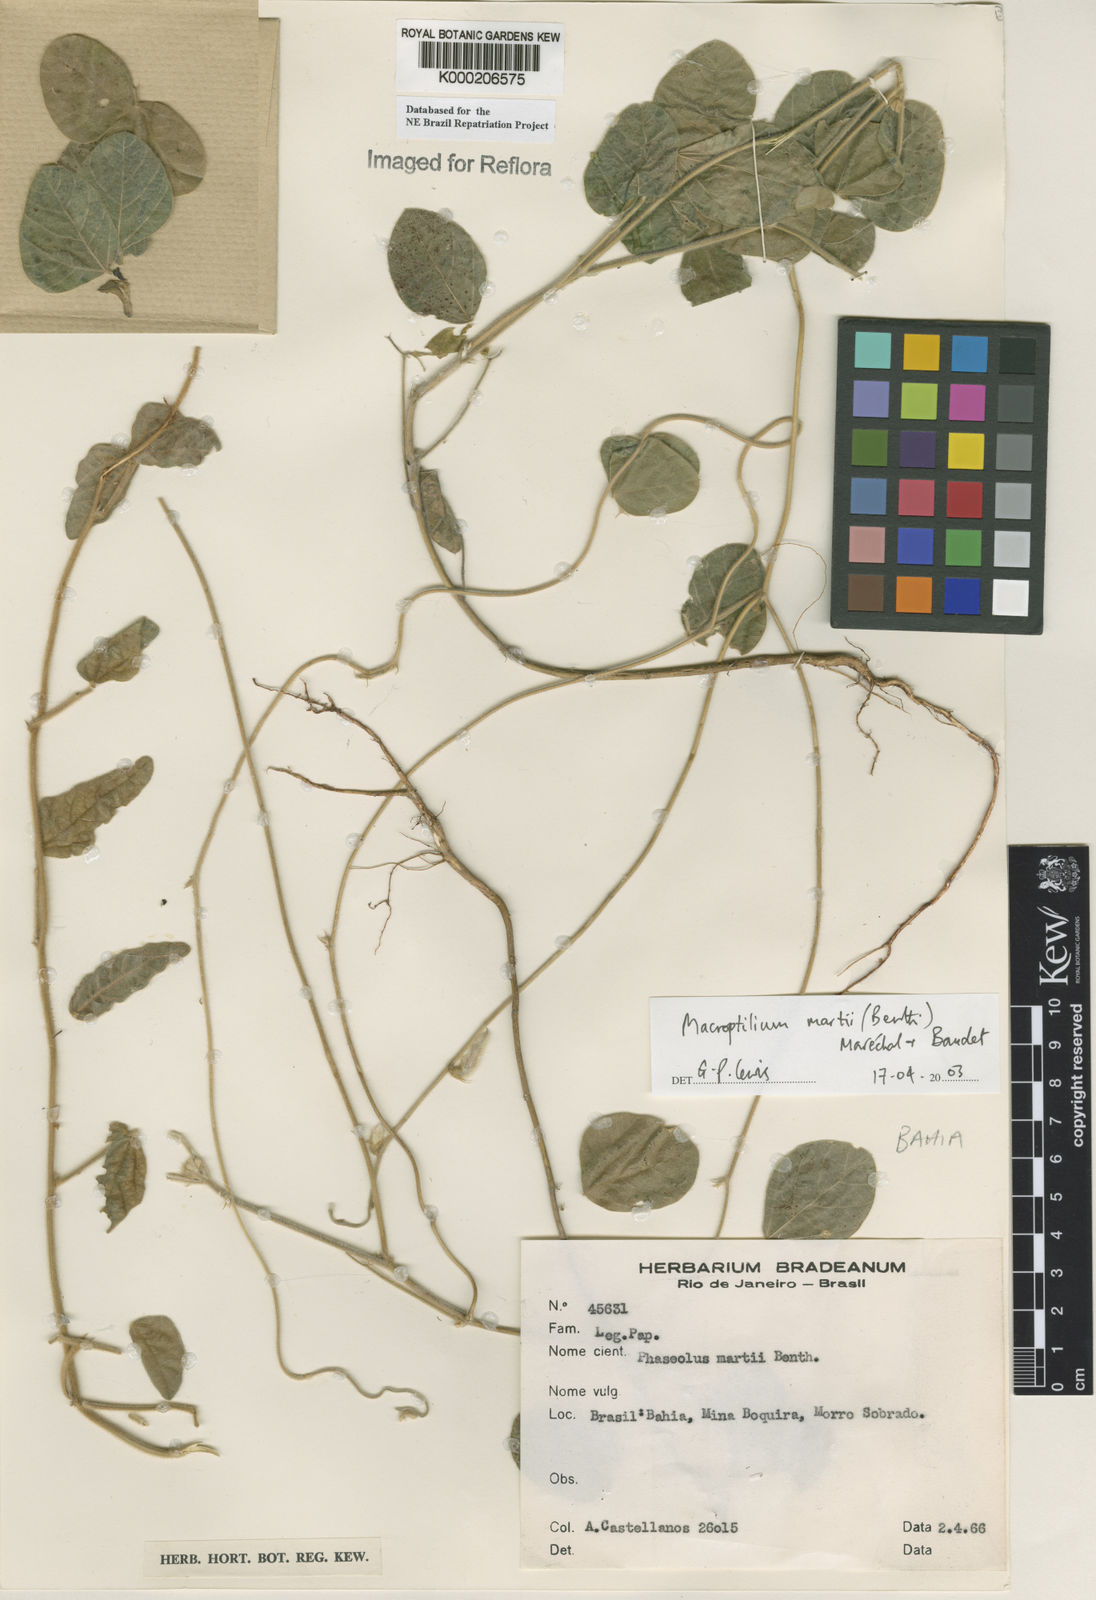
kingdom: Plantae
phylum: Tracheophyta
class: Magnoliopsida
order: Fabales
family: Fabaceae
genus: Macroptilium
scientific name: Macroptilium
